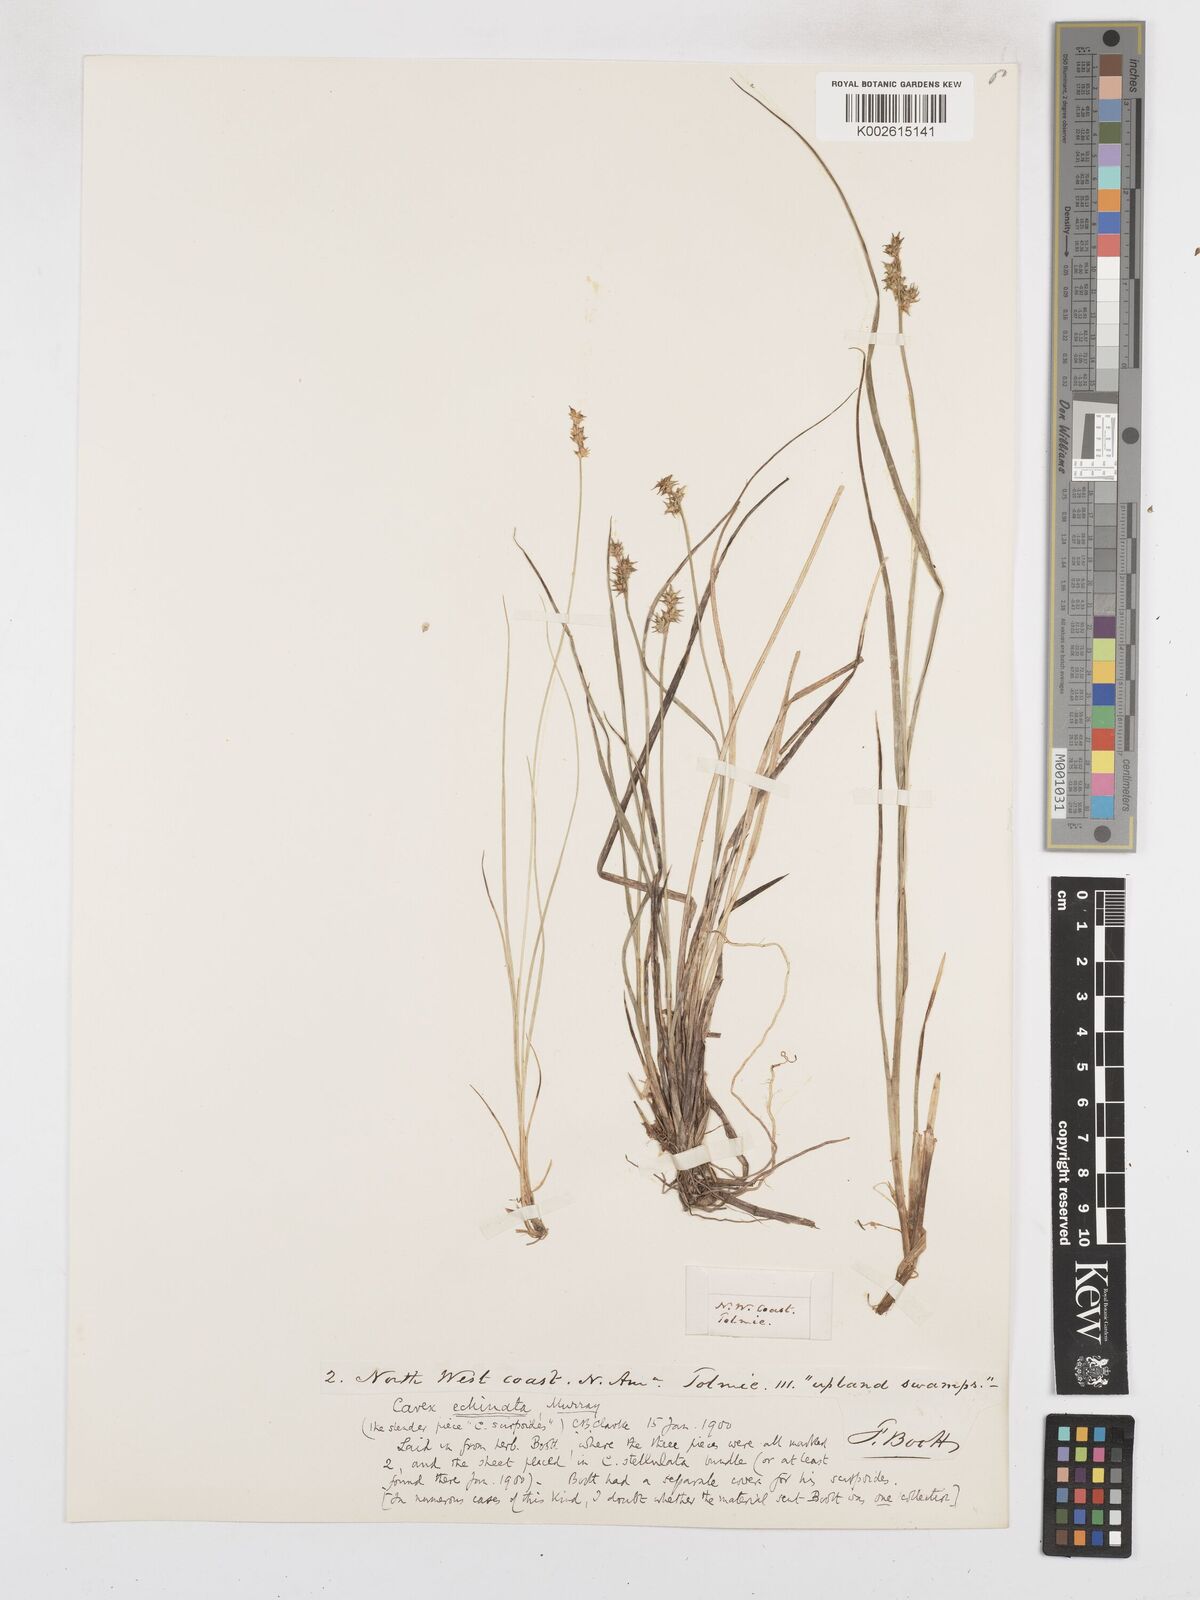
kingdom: Plantae
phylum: Tracheophyta
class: Liliopsida
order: Poales
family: Cyperaceae
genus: Carex
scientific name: Carex echinata
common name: Star sedge
